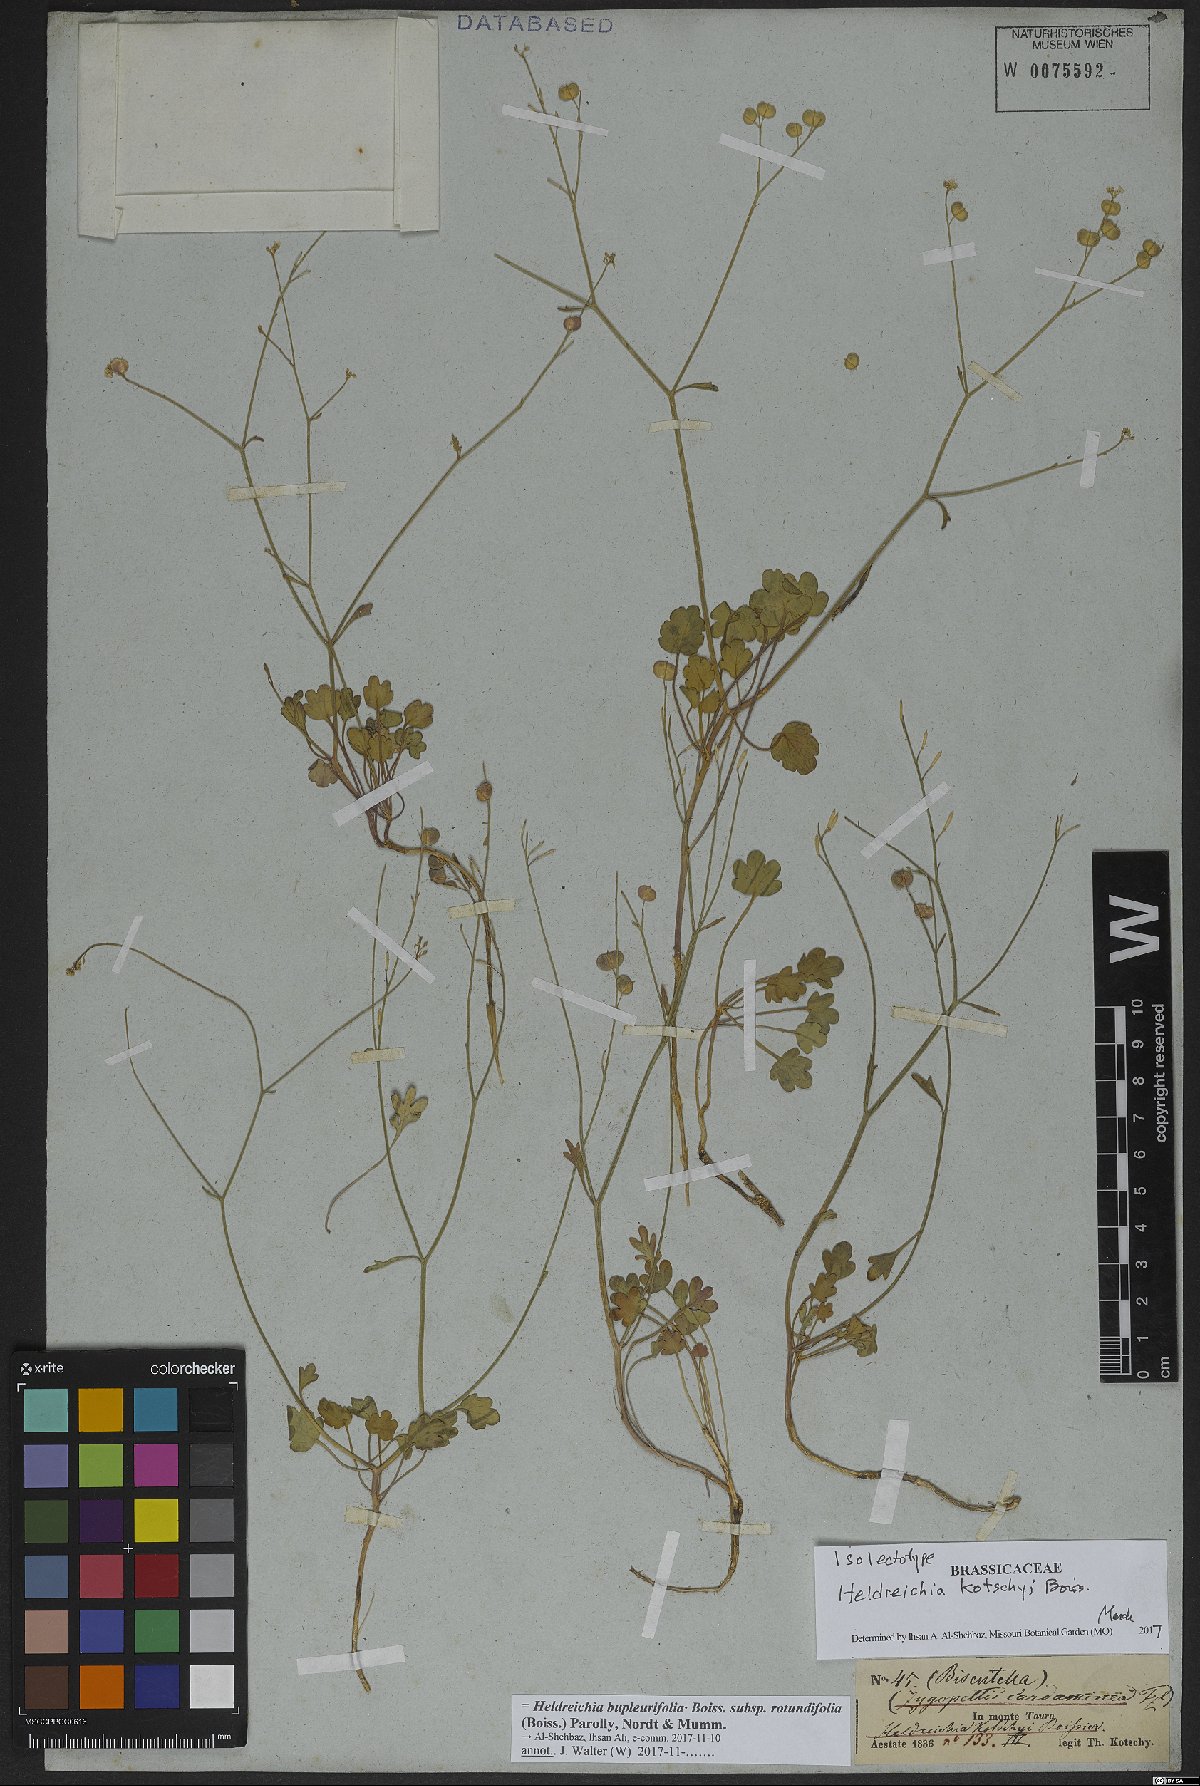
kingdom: Plantae
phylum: Tracheophyta
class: Magnoliopsida
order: Brassicales
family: Brassicaceae
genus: Heldreichia
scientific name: Heldreichia bupleurifolia
